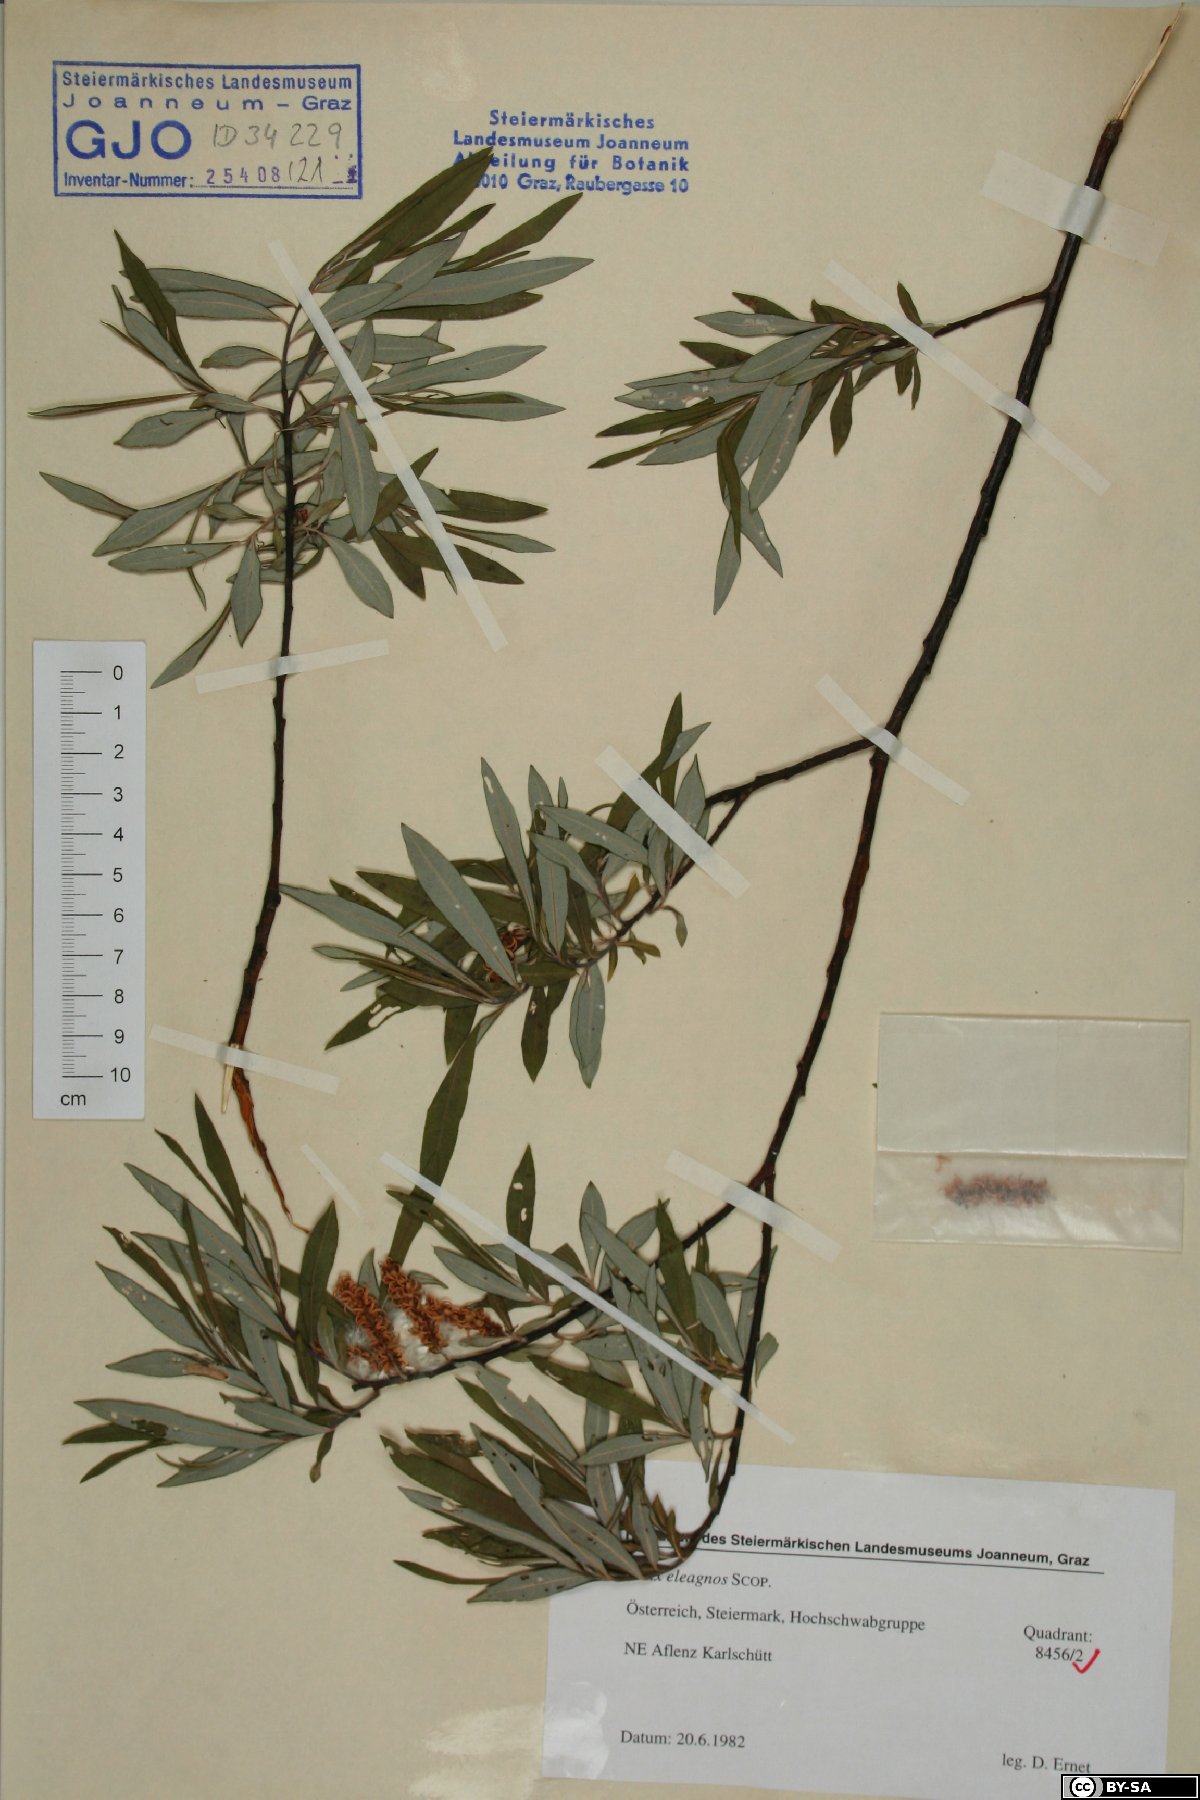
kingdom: Plantae
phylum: Tracheophyta
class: Magnoliopsida
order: Malpighiales
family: Salicaceae
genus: Salix
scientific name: Salix eleagnos
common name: Elaeagnus willow
